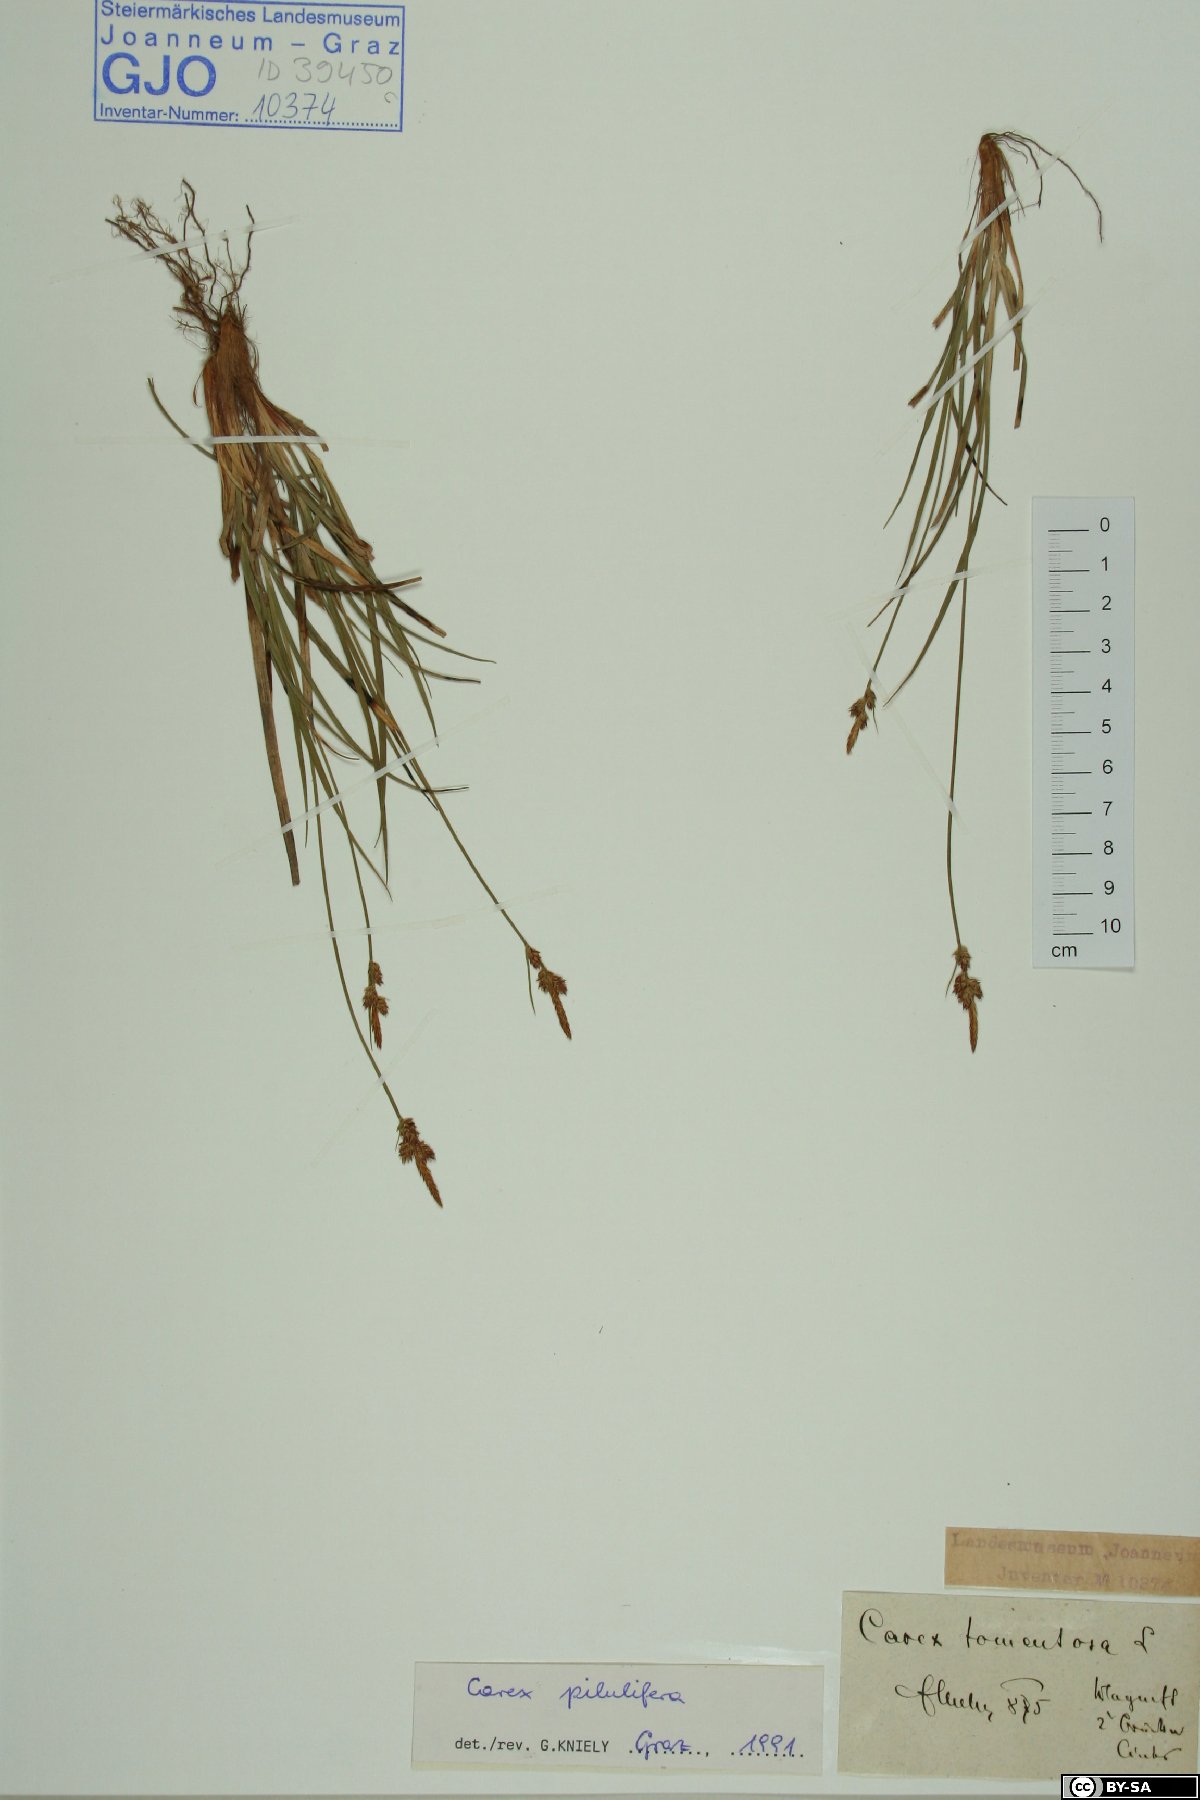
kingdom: Plantae
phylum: Tracheophyta
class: Liliopsida
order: Poales
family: Cyperaceae
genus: Carex
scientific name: Carex pilulifera
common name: Pill sedge
